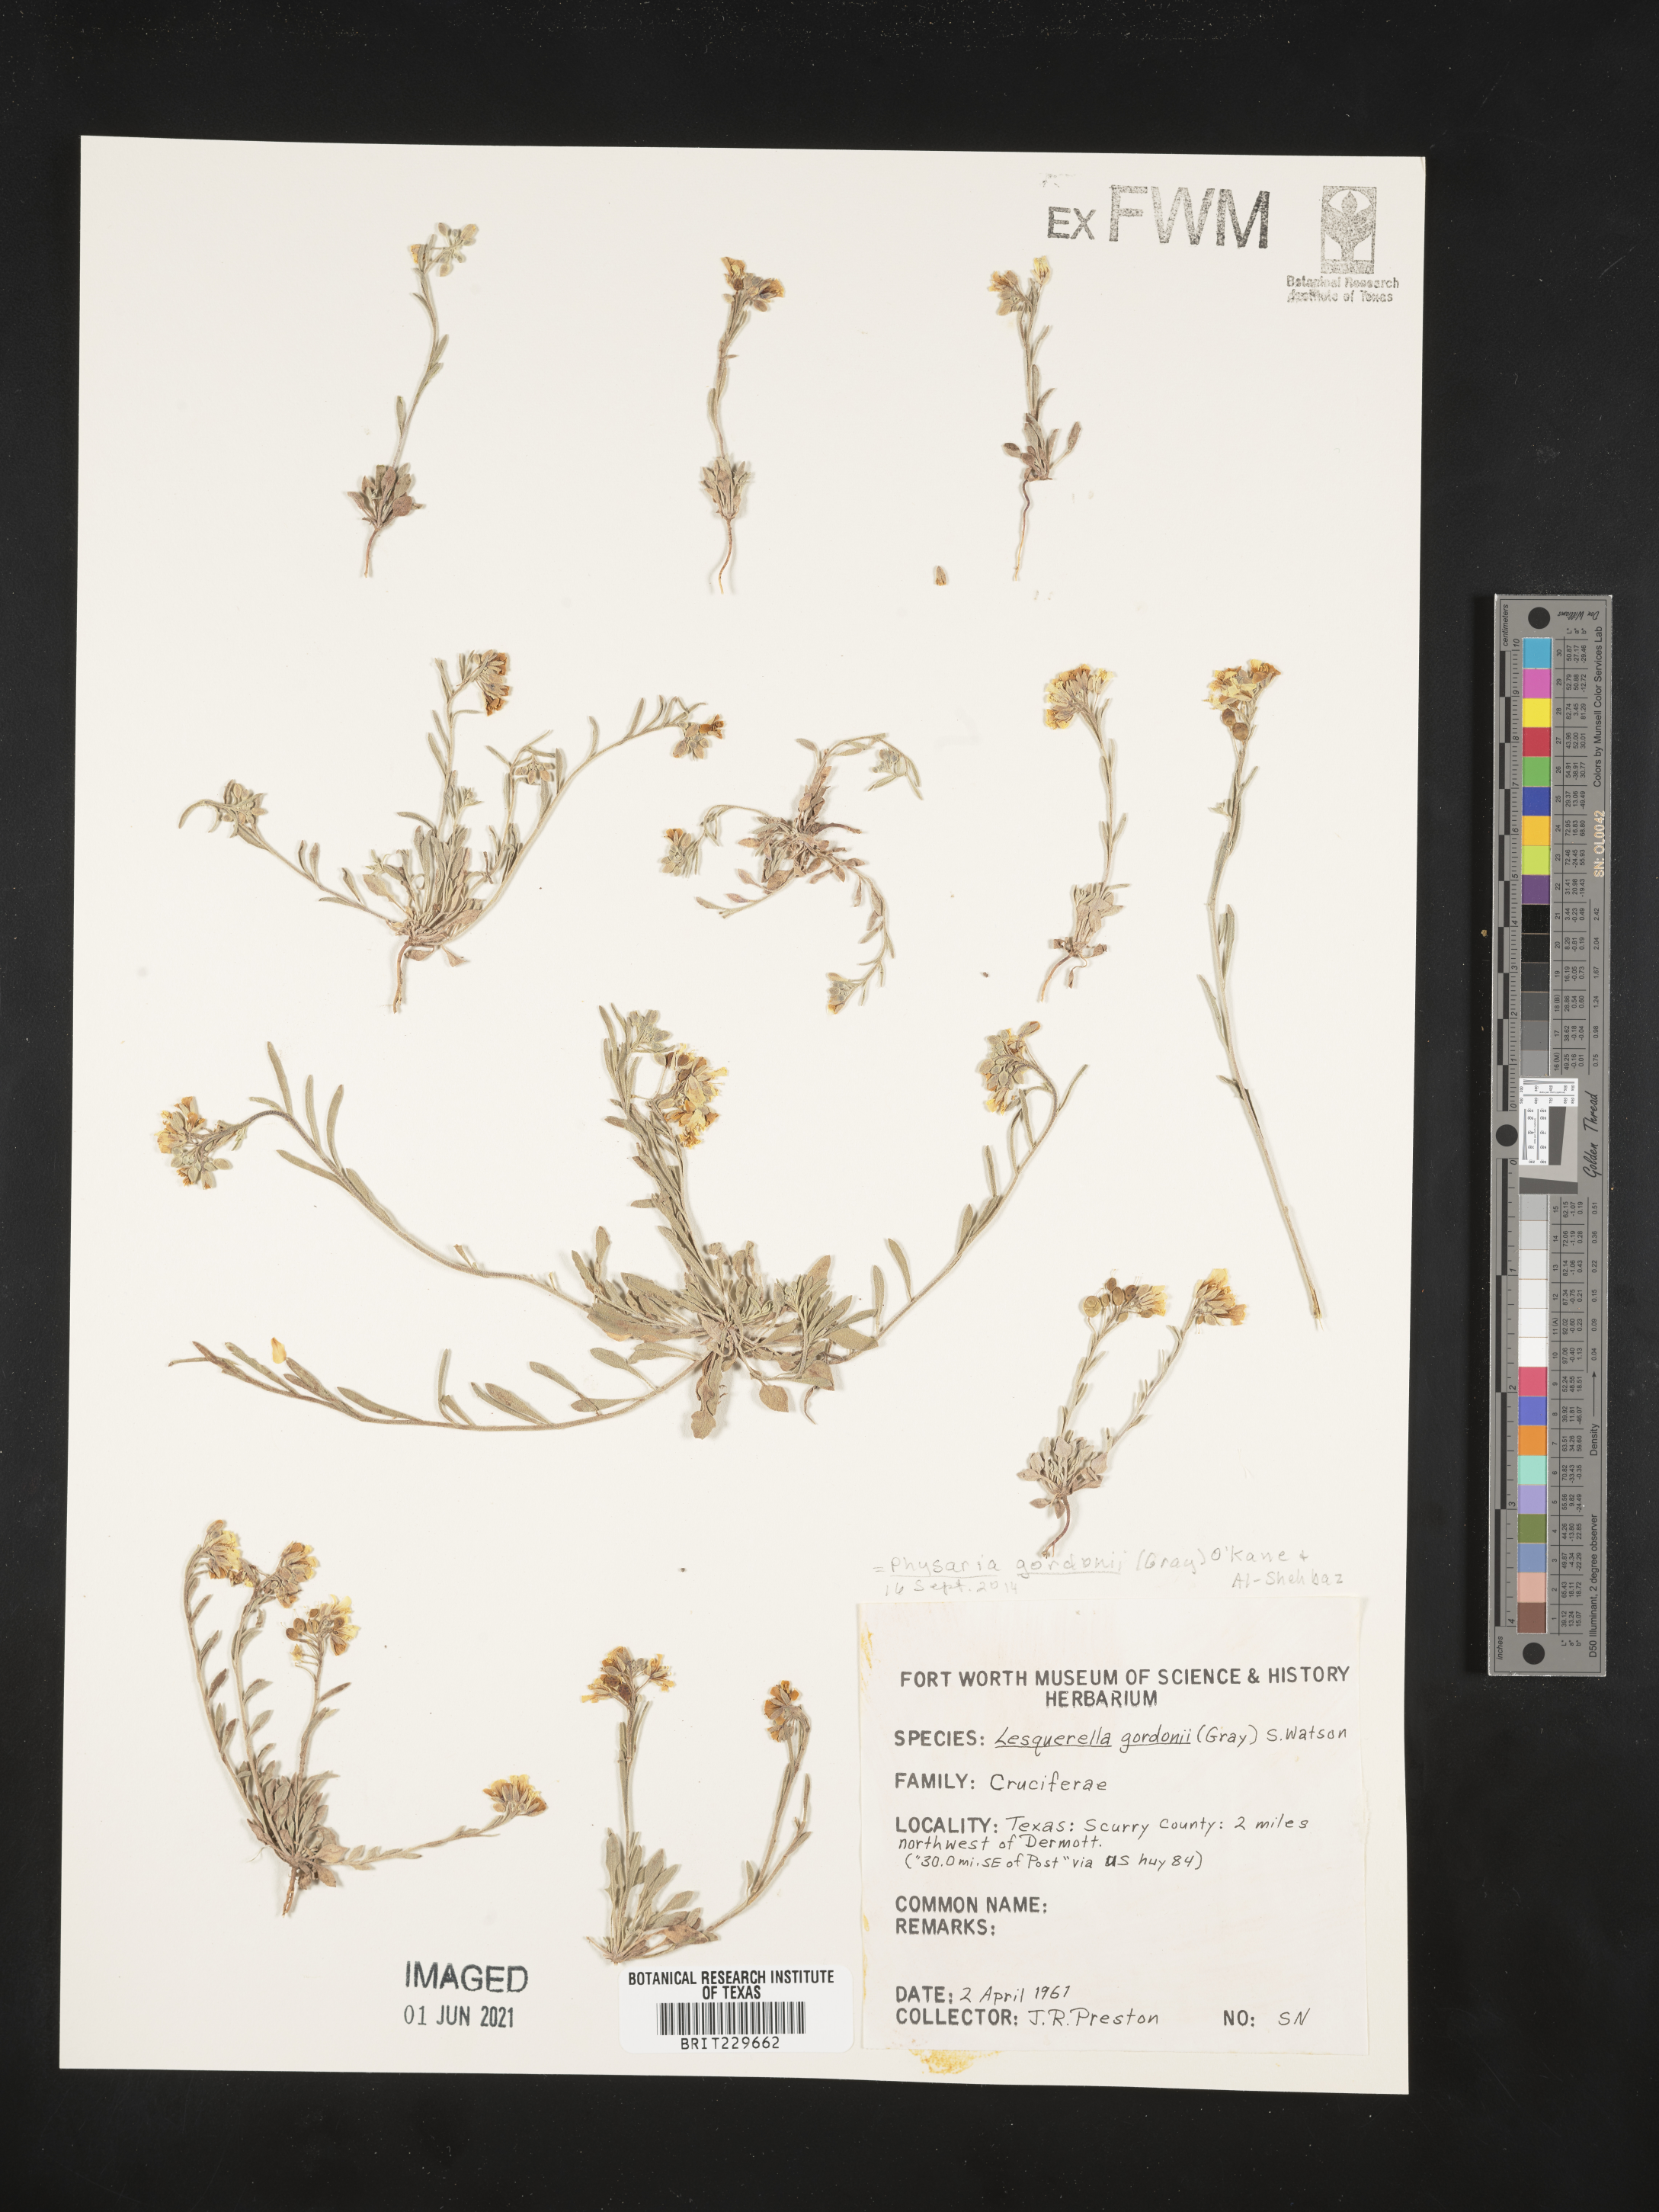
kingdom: Plantae
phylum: Tracheophyta
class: Magnoliopsida
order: Brassicales
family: Brassicaceae
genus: Physaria
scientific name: Physaria gordonii
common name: Gordon's bladderpod
